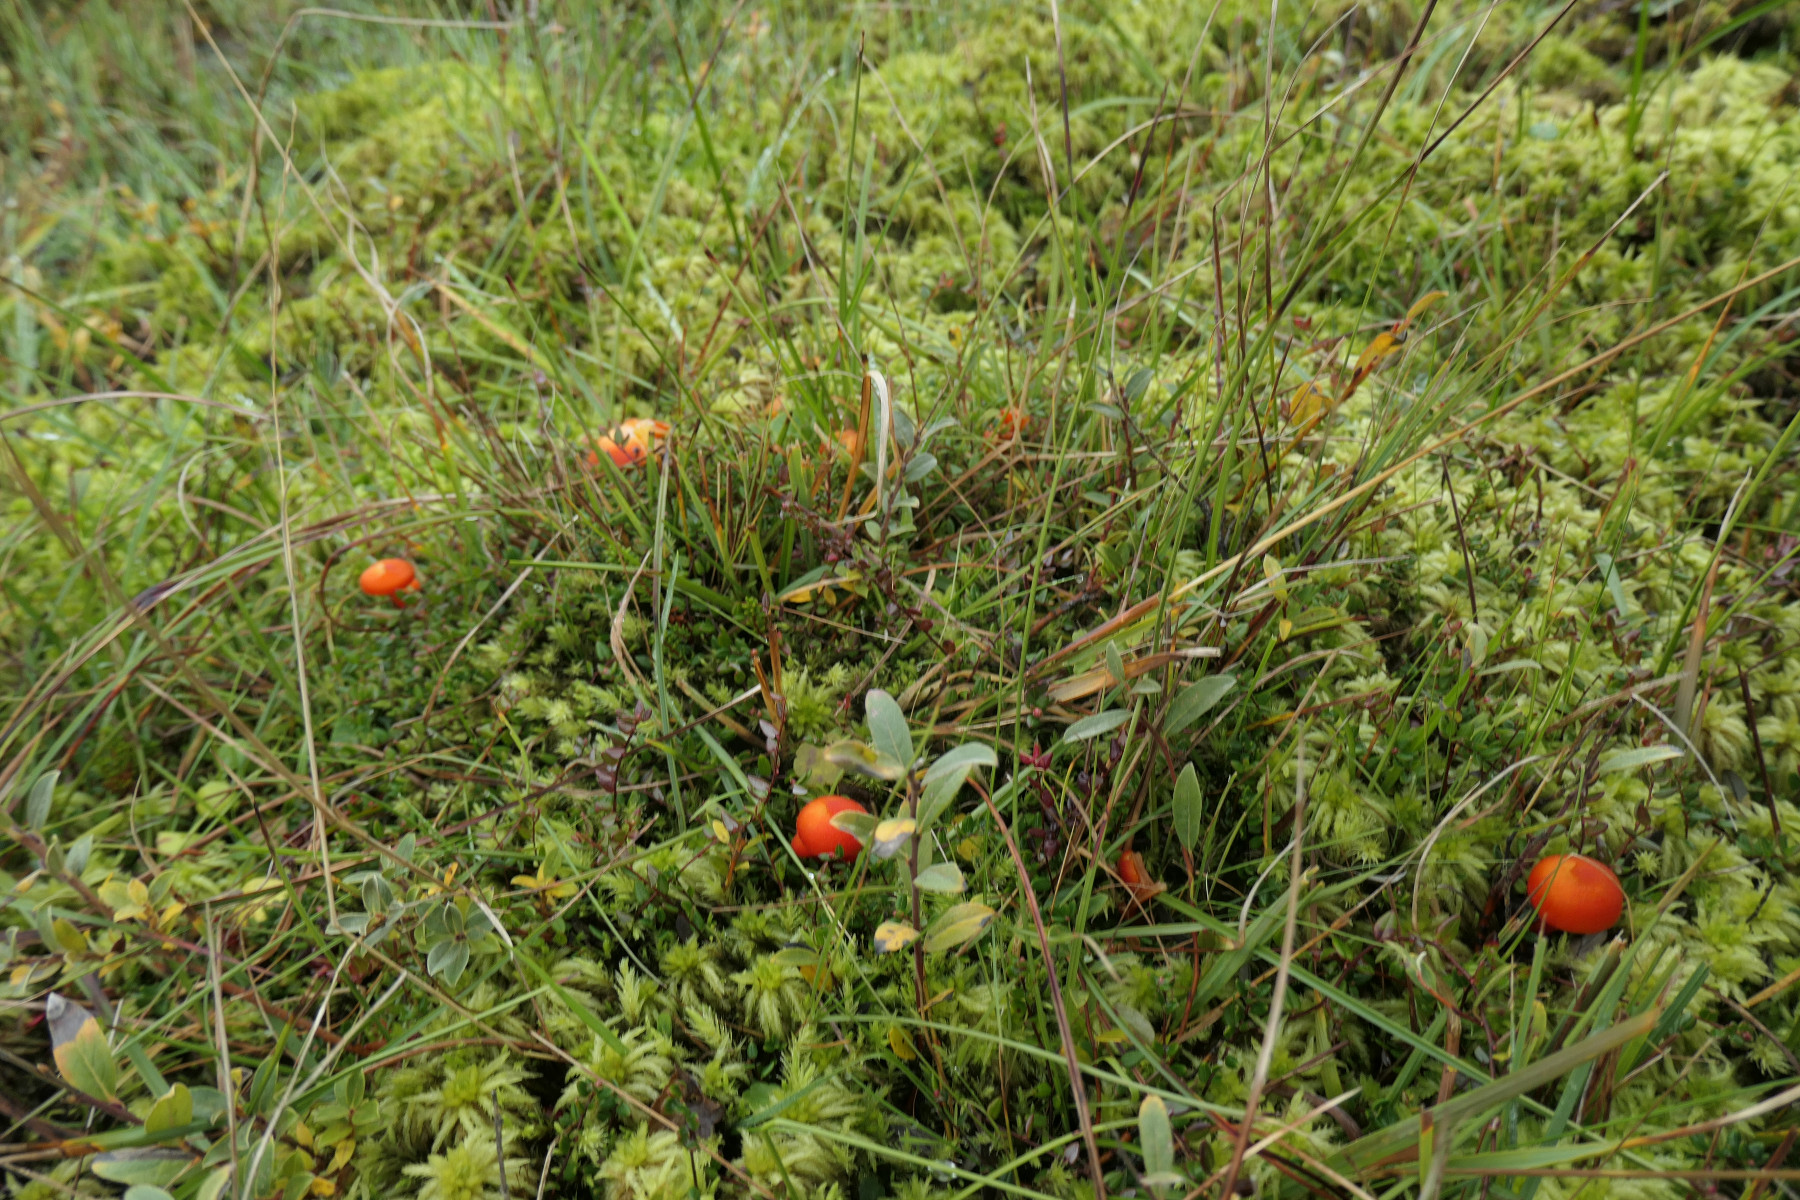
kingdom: Fungi
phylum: Basidiomycota
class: Agaricomycetes
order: Agaricales
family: Hygrophoraceae
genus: Hygrocybe
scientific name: Hygrocybe substrangulata
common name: kær-vokshat
